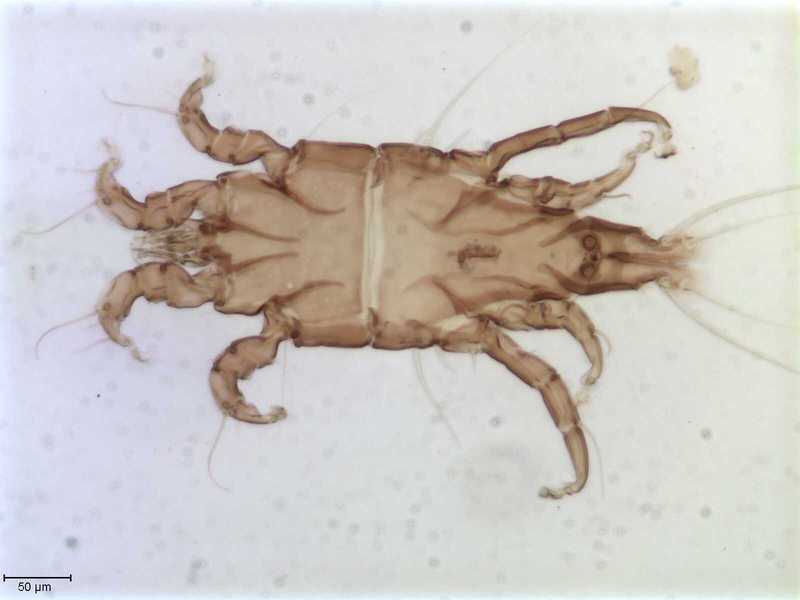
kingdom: Animalia
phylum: Arthropoda
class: Arachnida
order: Sarcoptiformes
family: Trouessartiidae
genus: Bicentralges
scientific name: Bicentralges
